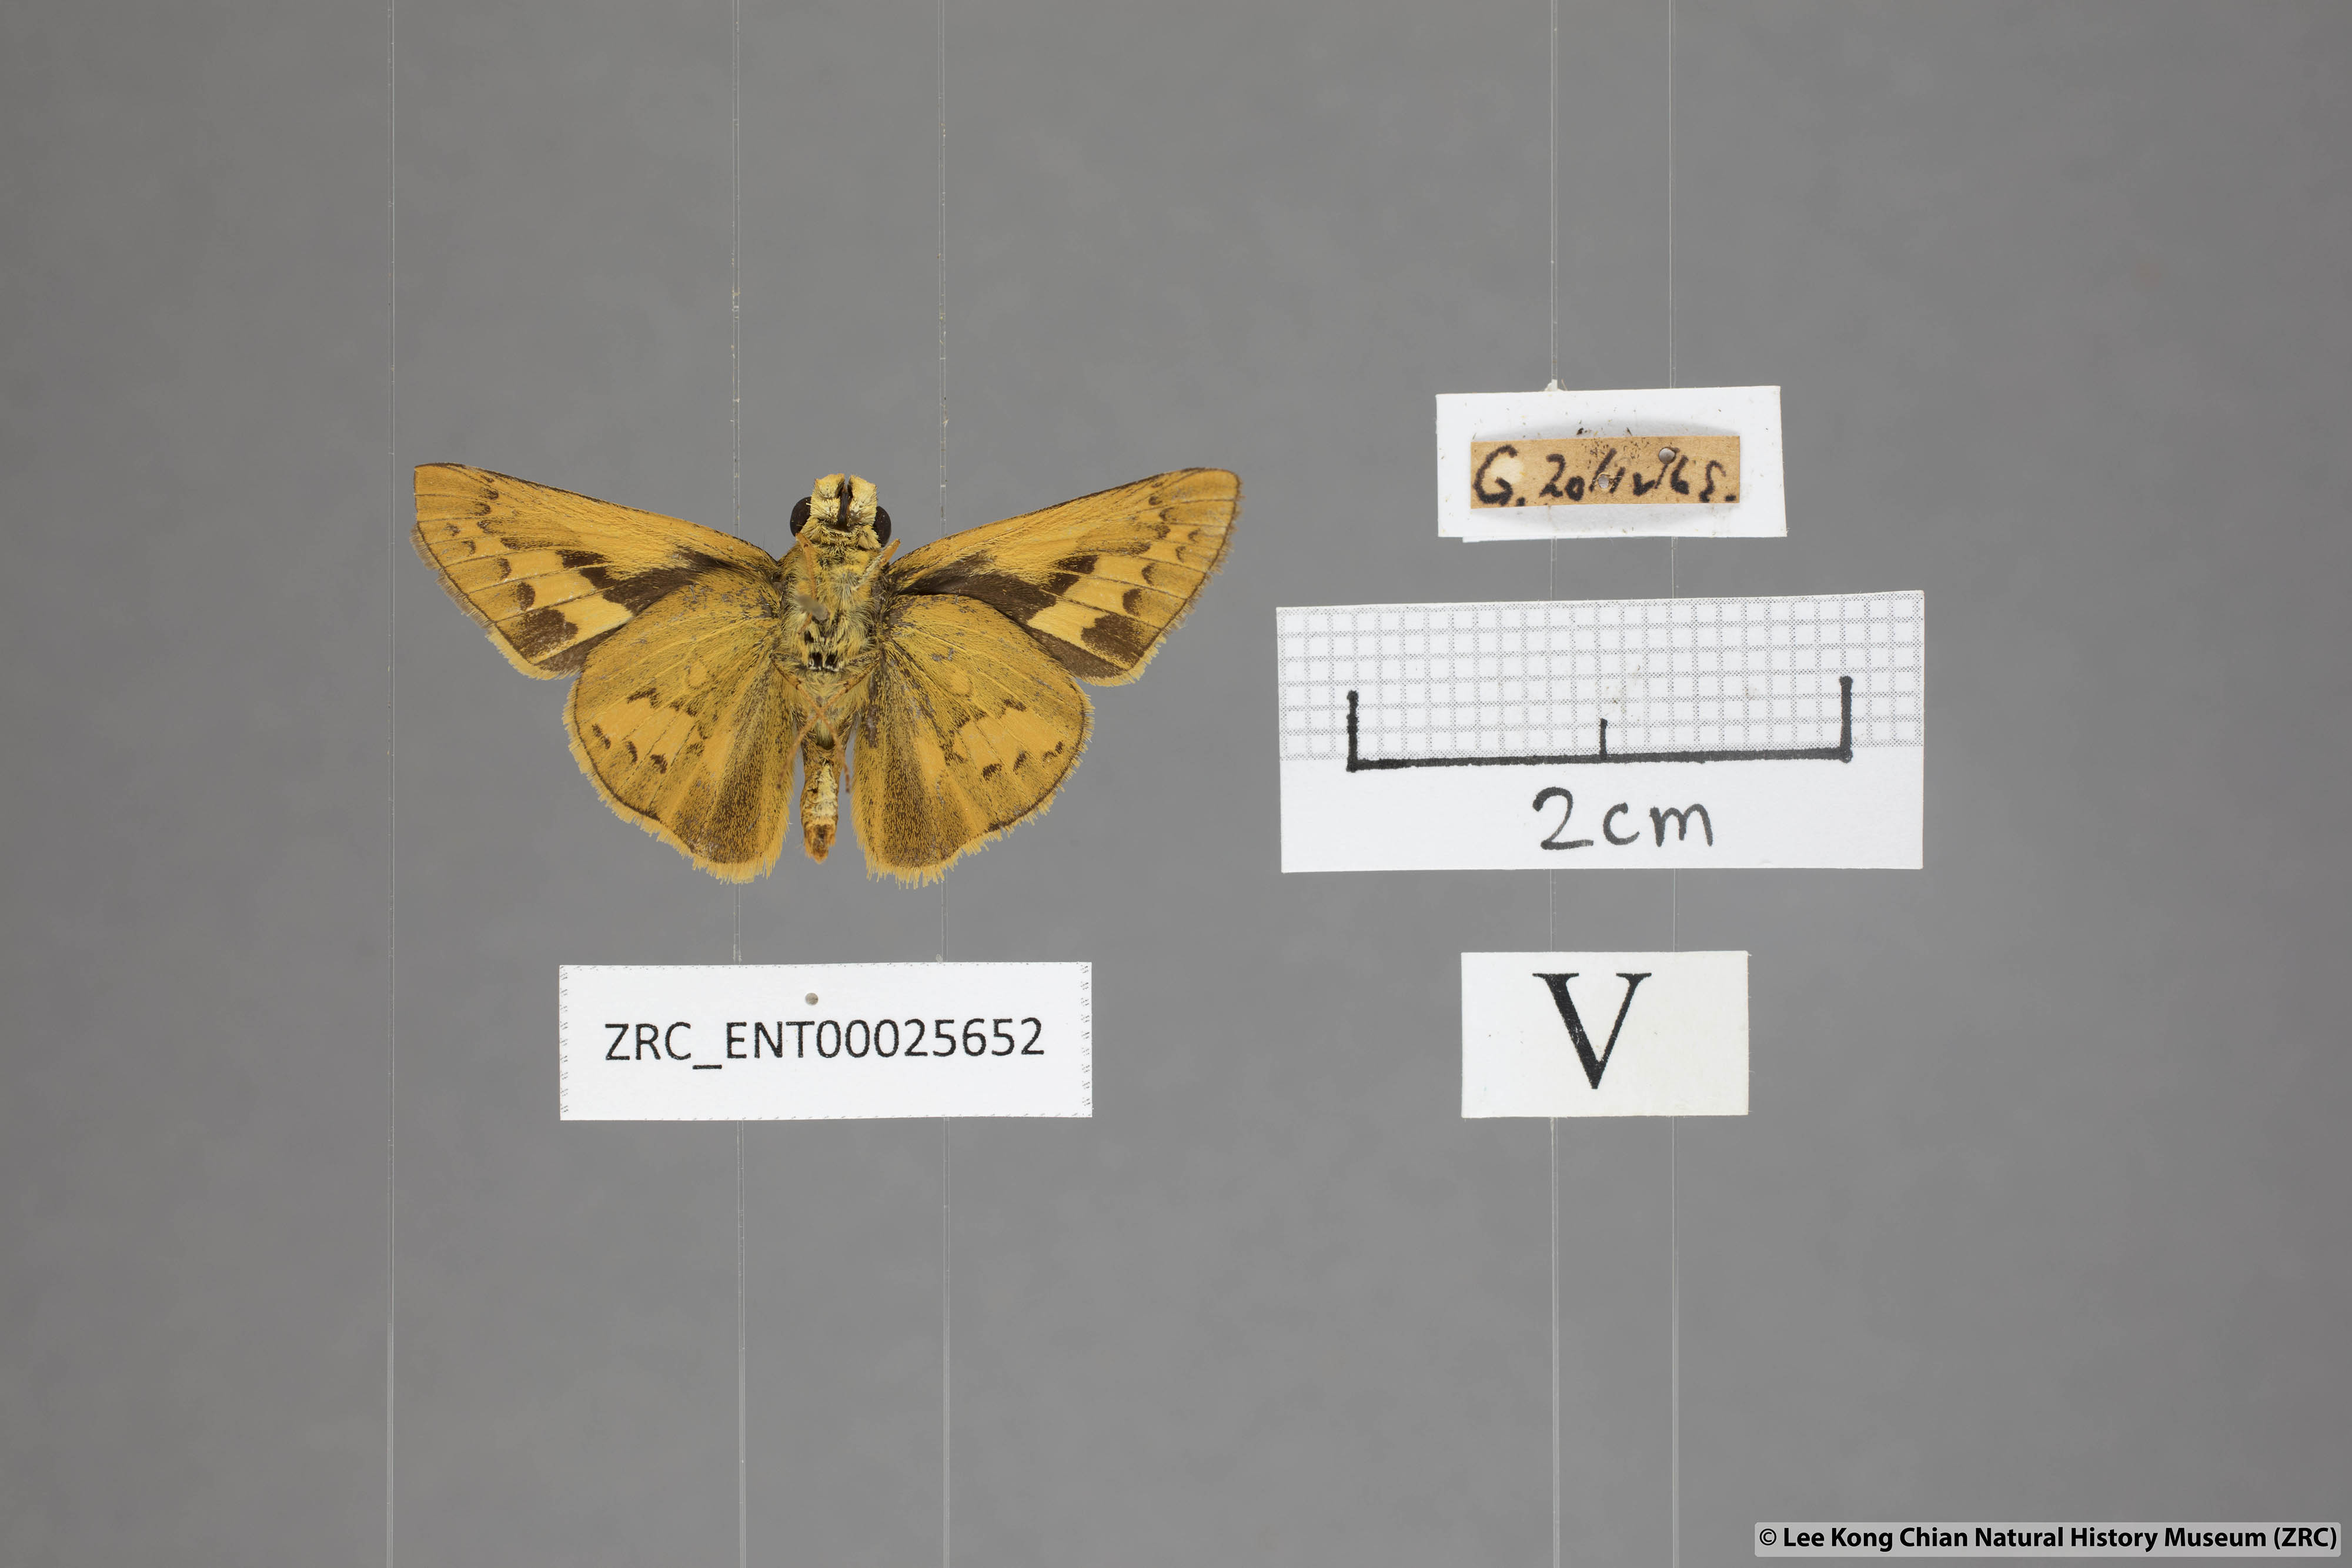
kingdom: Animalia
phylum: Arthropoda
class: Insecta
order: Lepidoptera
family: Hesperiidae
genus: Telicota
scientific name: Telicota colon
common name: Pale palm dart
